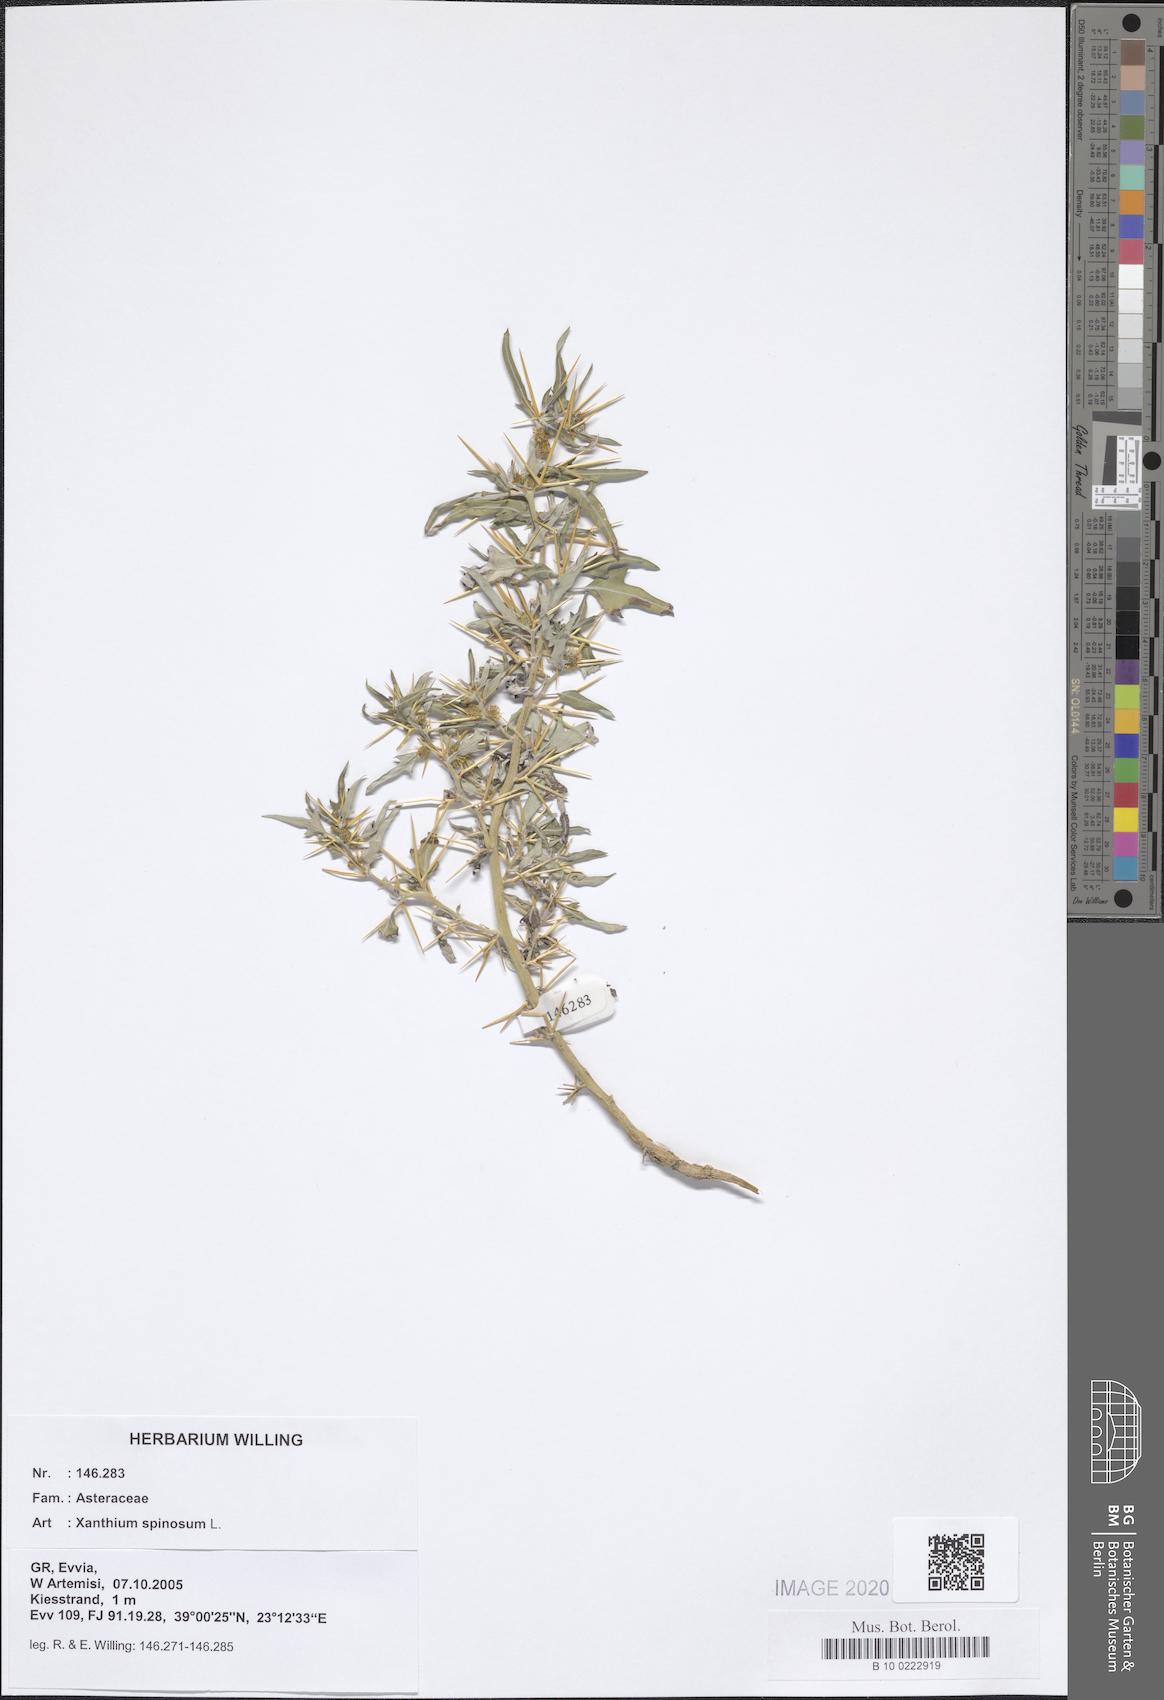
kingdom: Plantae
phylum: Tracheophyta
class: Magnoliopsida
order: Asterales
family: Asteraceae
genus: Xanthium
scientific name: Xanthium spinosum
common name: Spiny cocklebur
